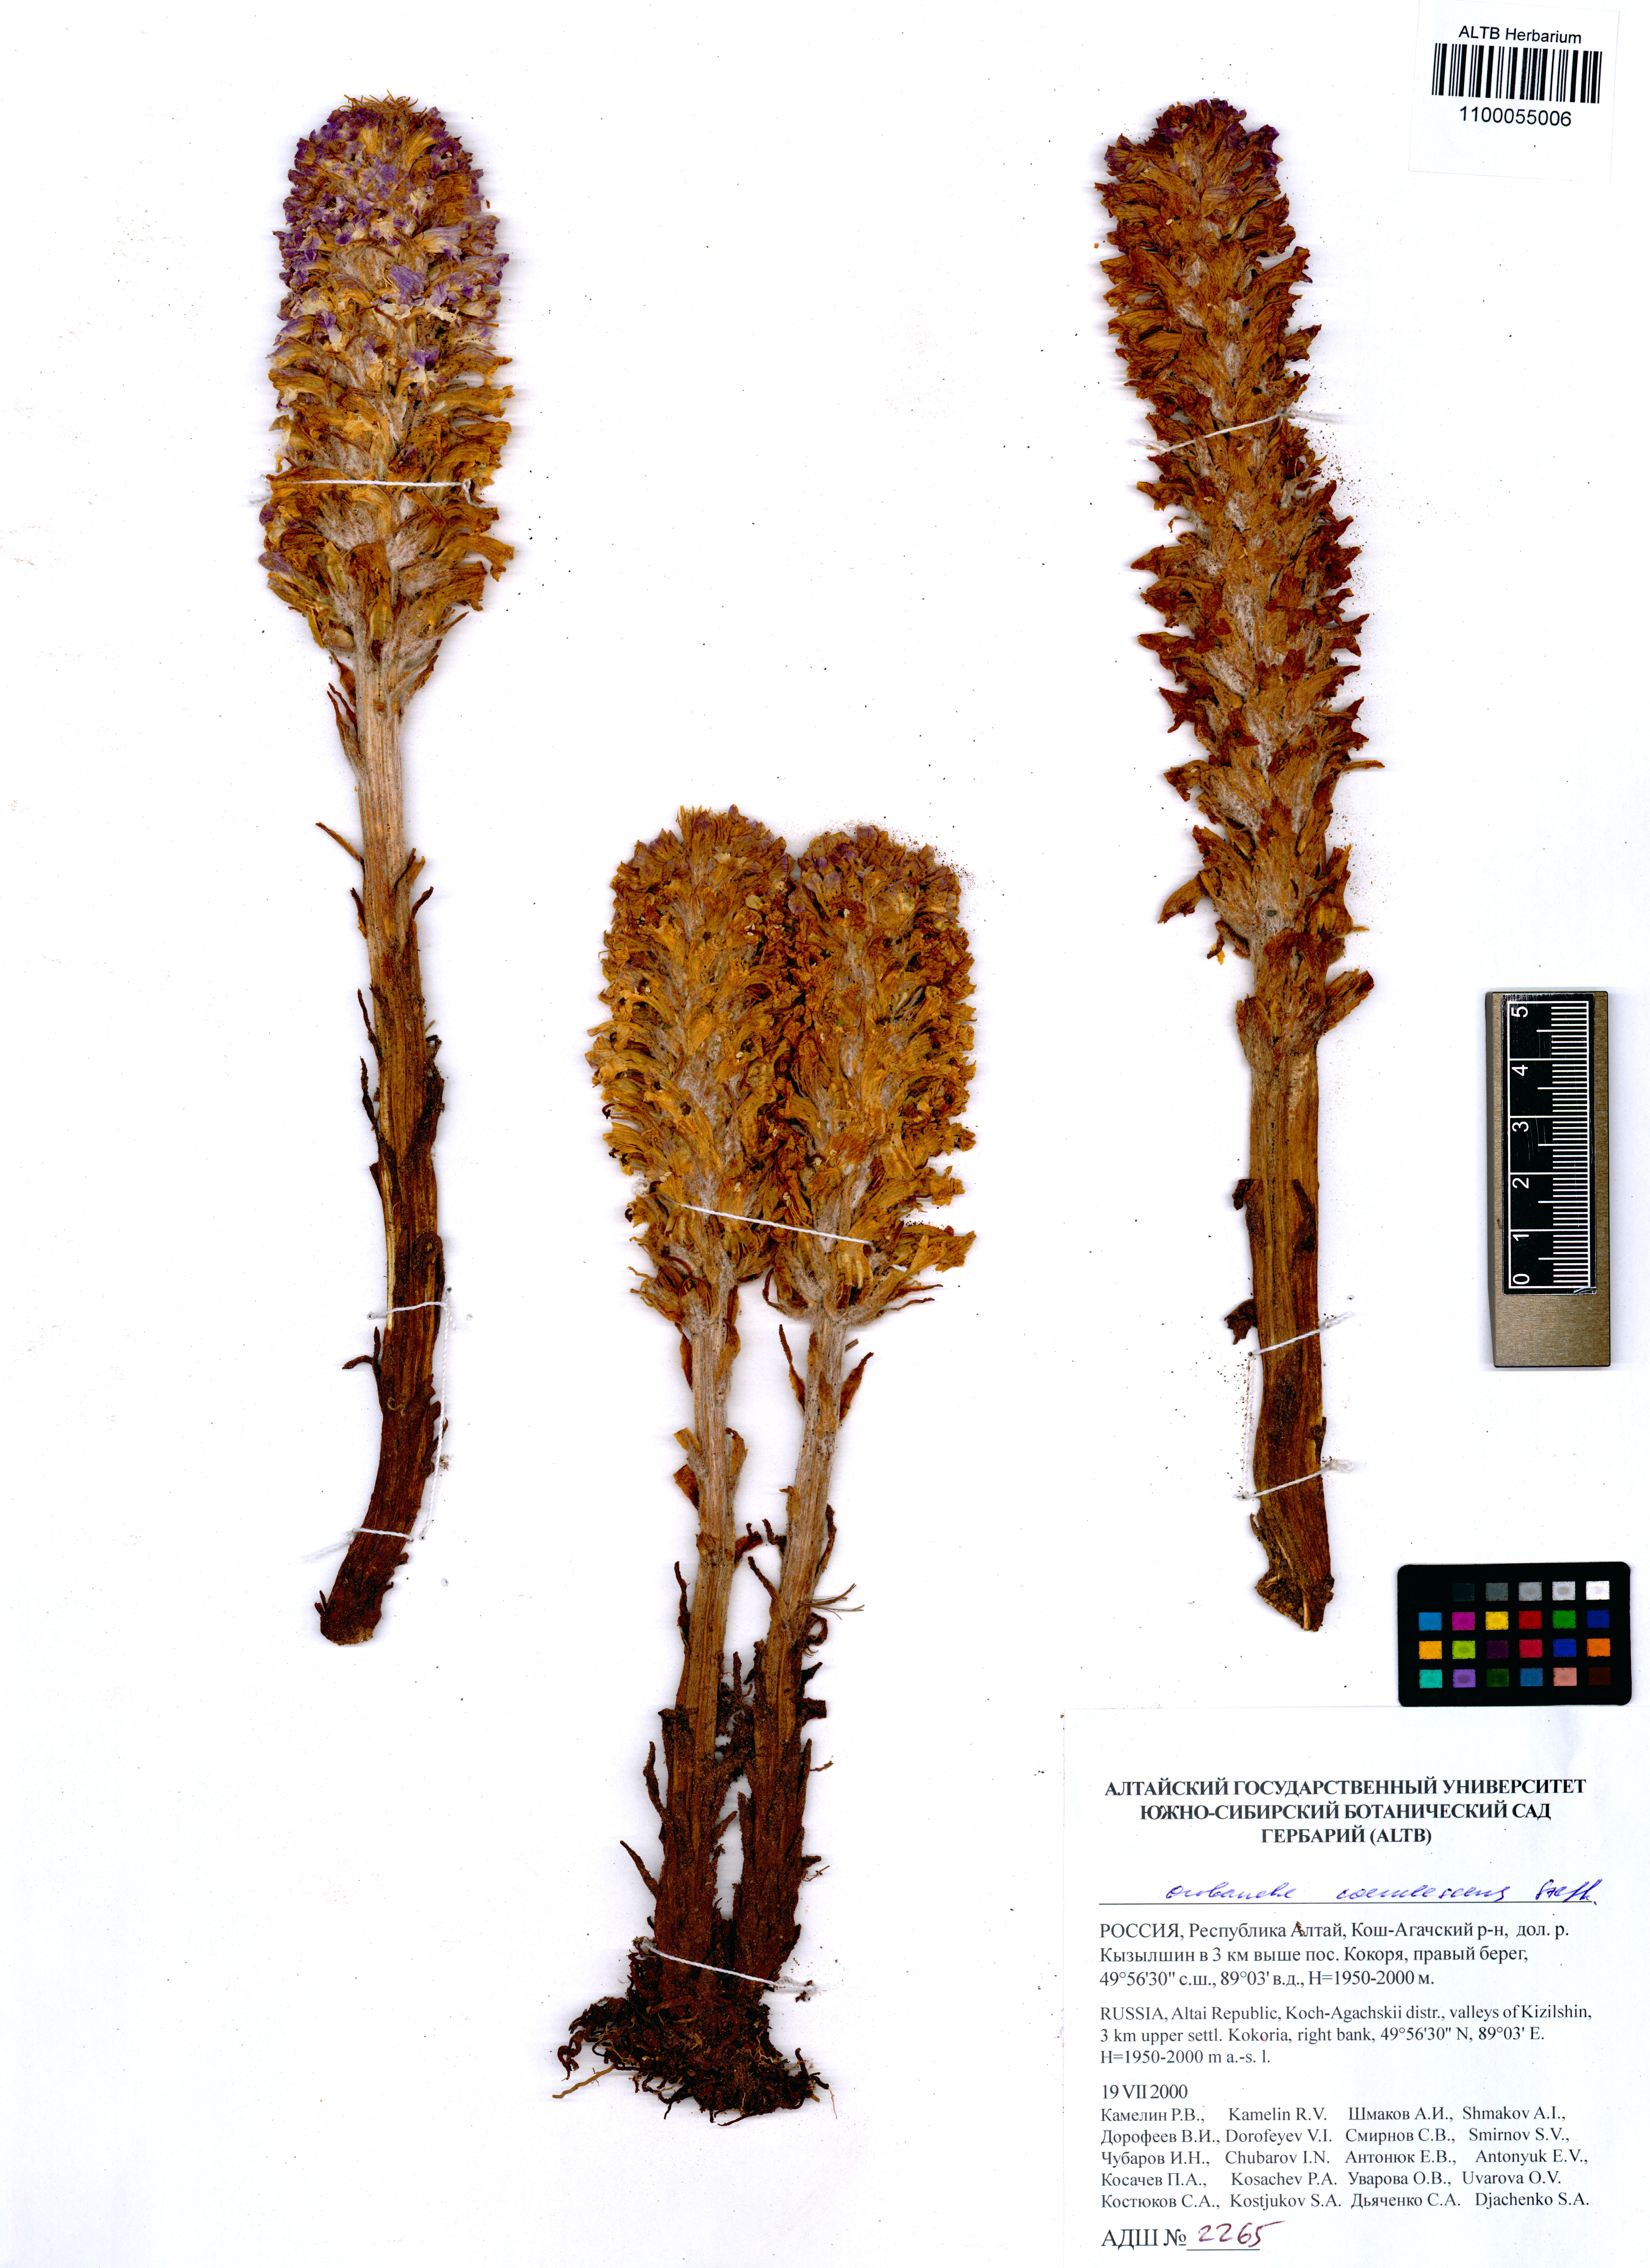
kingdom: Plantae
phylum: Tracheophyta
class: Magnoliopsida
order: Lamiales
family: Orobanchaceae
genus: Orobanche
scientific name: Orobanche coerulescens
